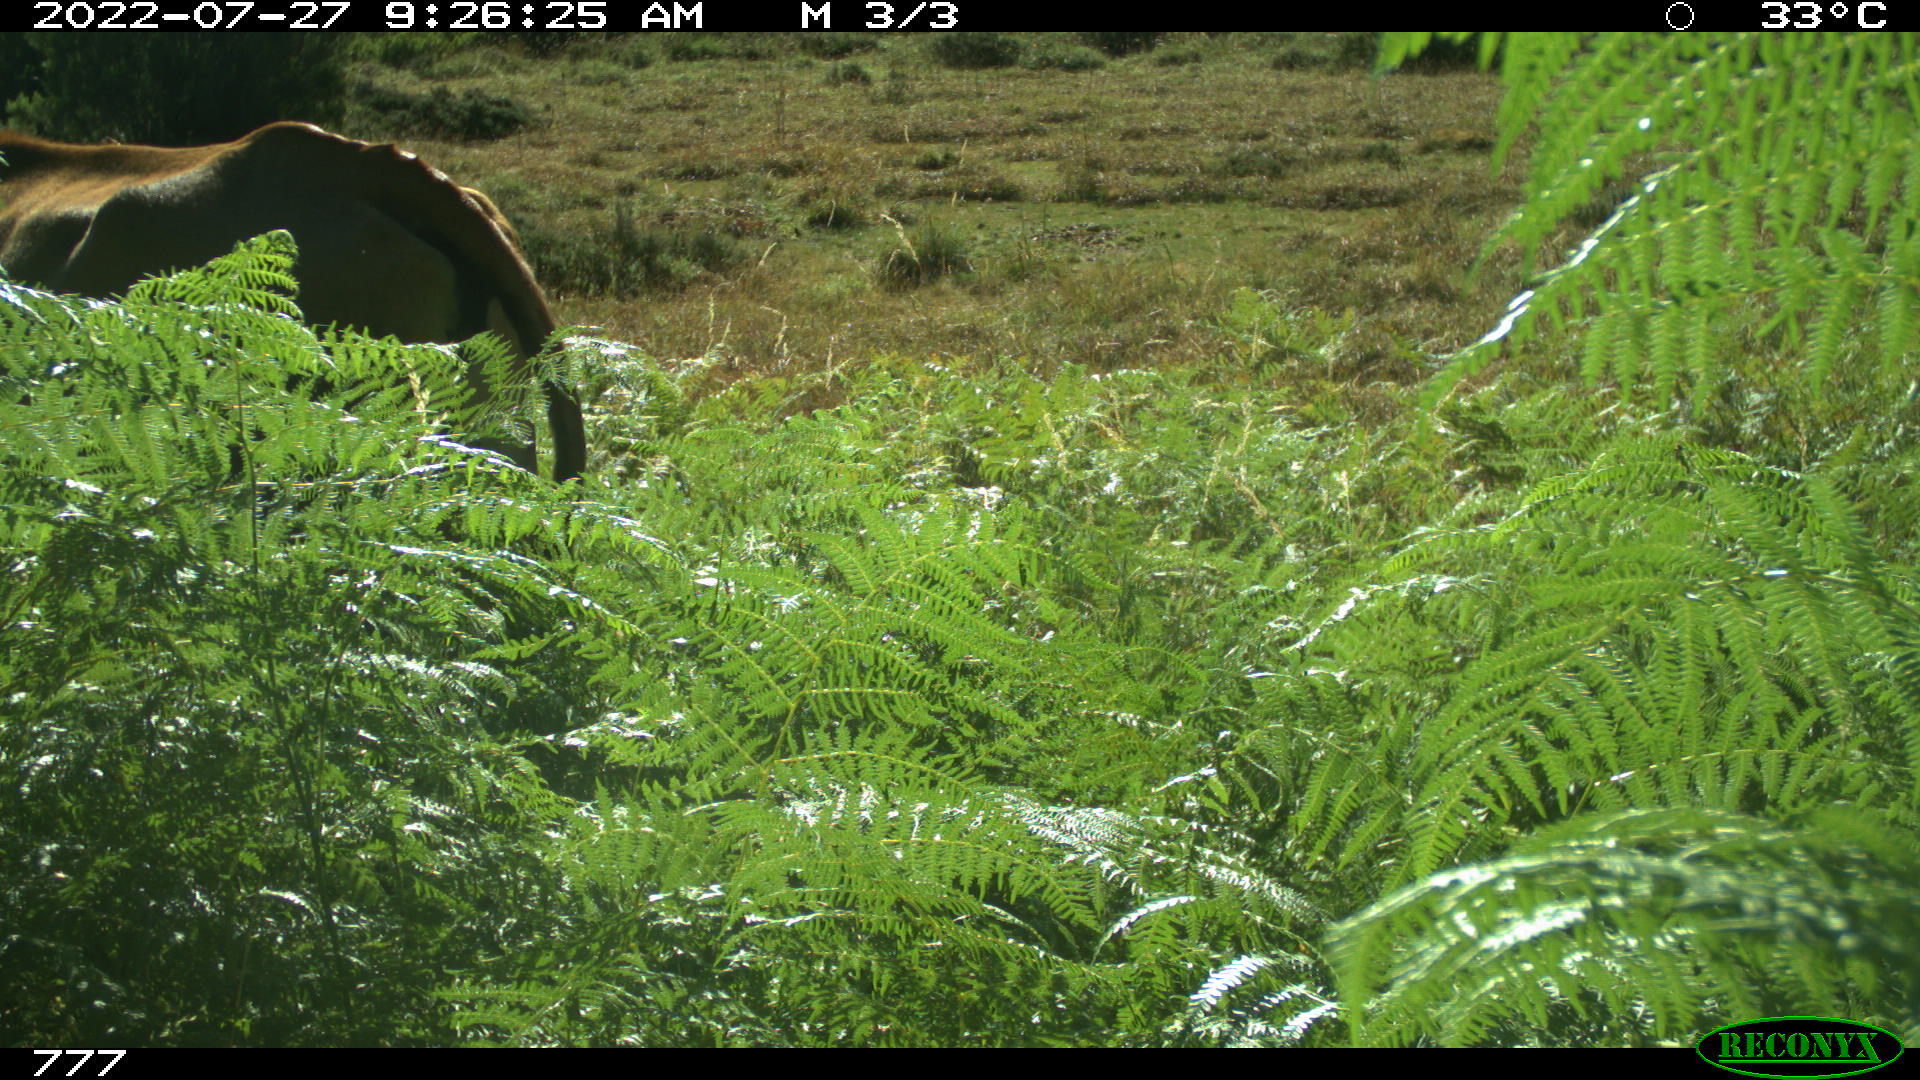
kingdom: Animalia
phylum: Chordata
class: Mammalia
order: Artiodactyla
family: Bovidae
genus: Bos
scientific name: Bos taurus
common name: Domesticated cattle
